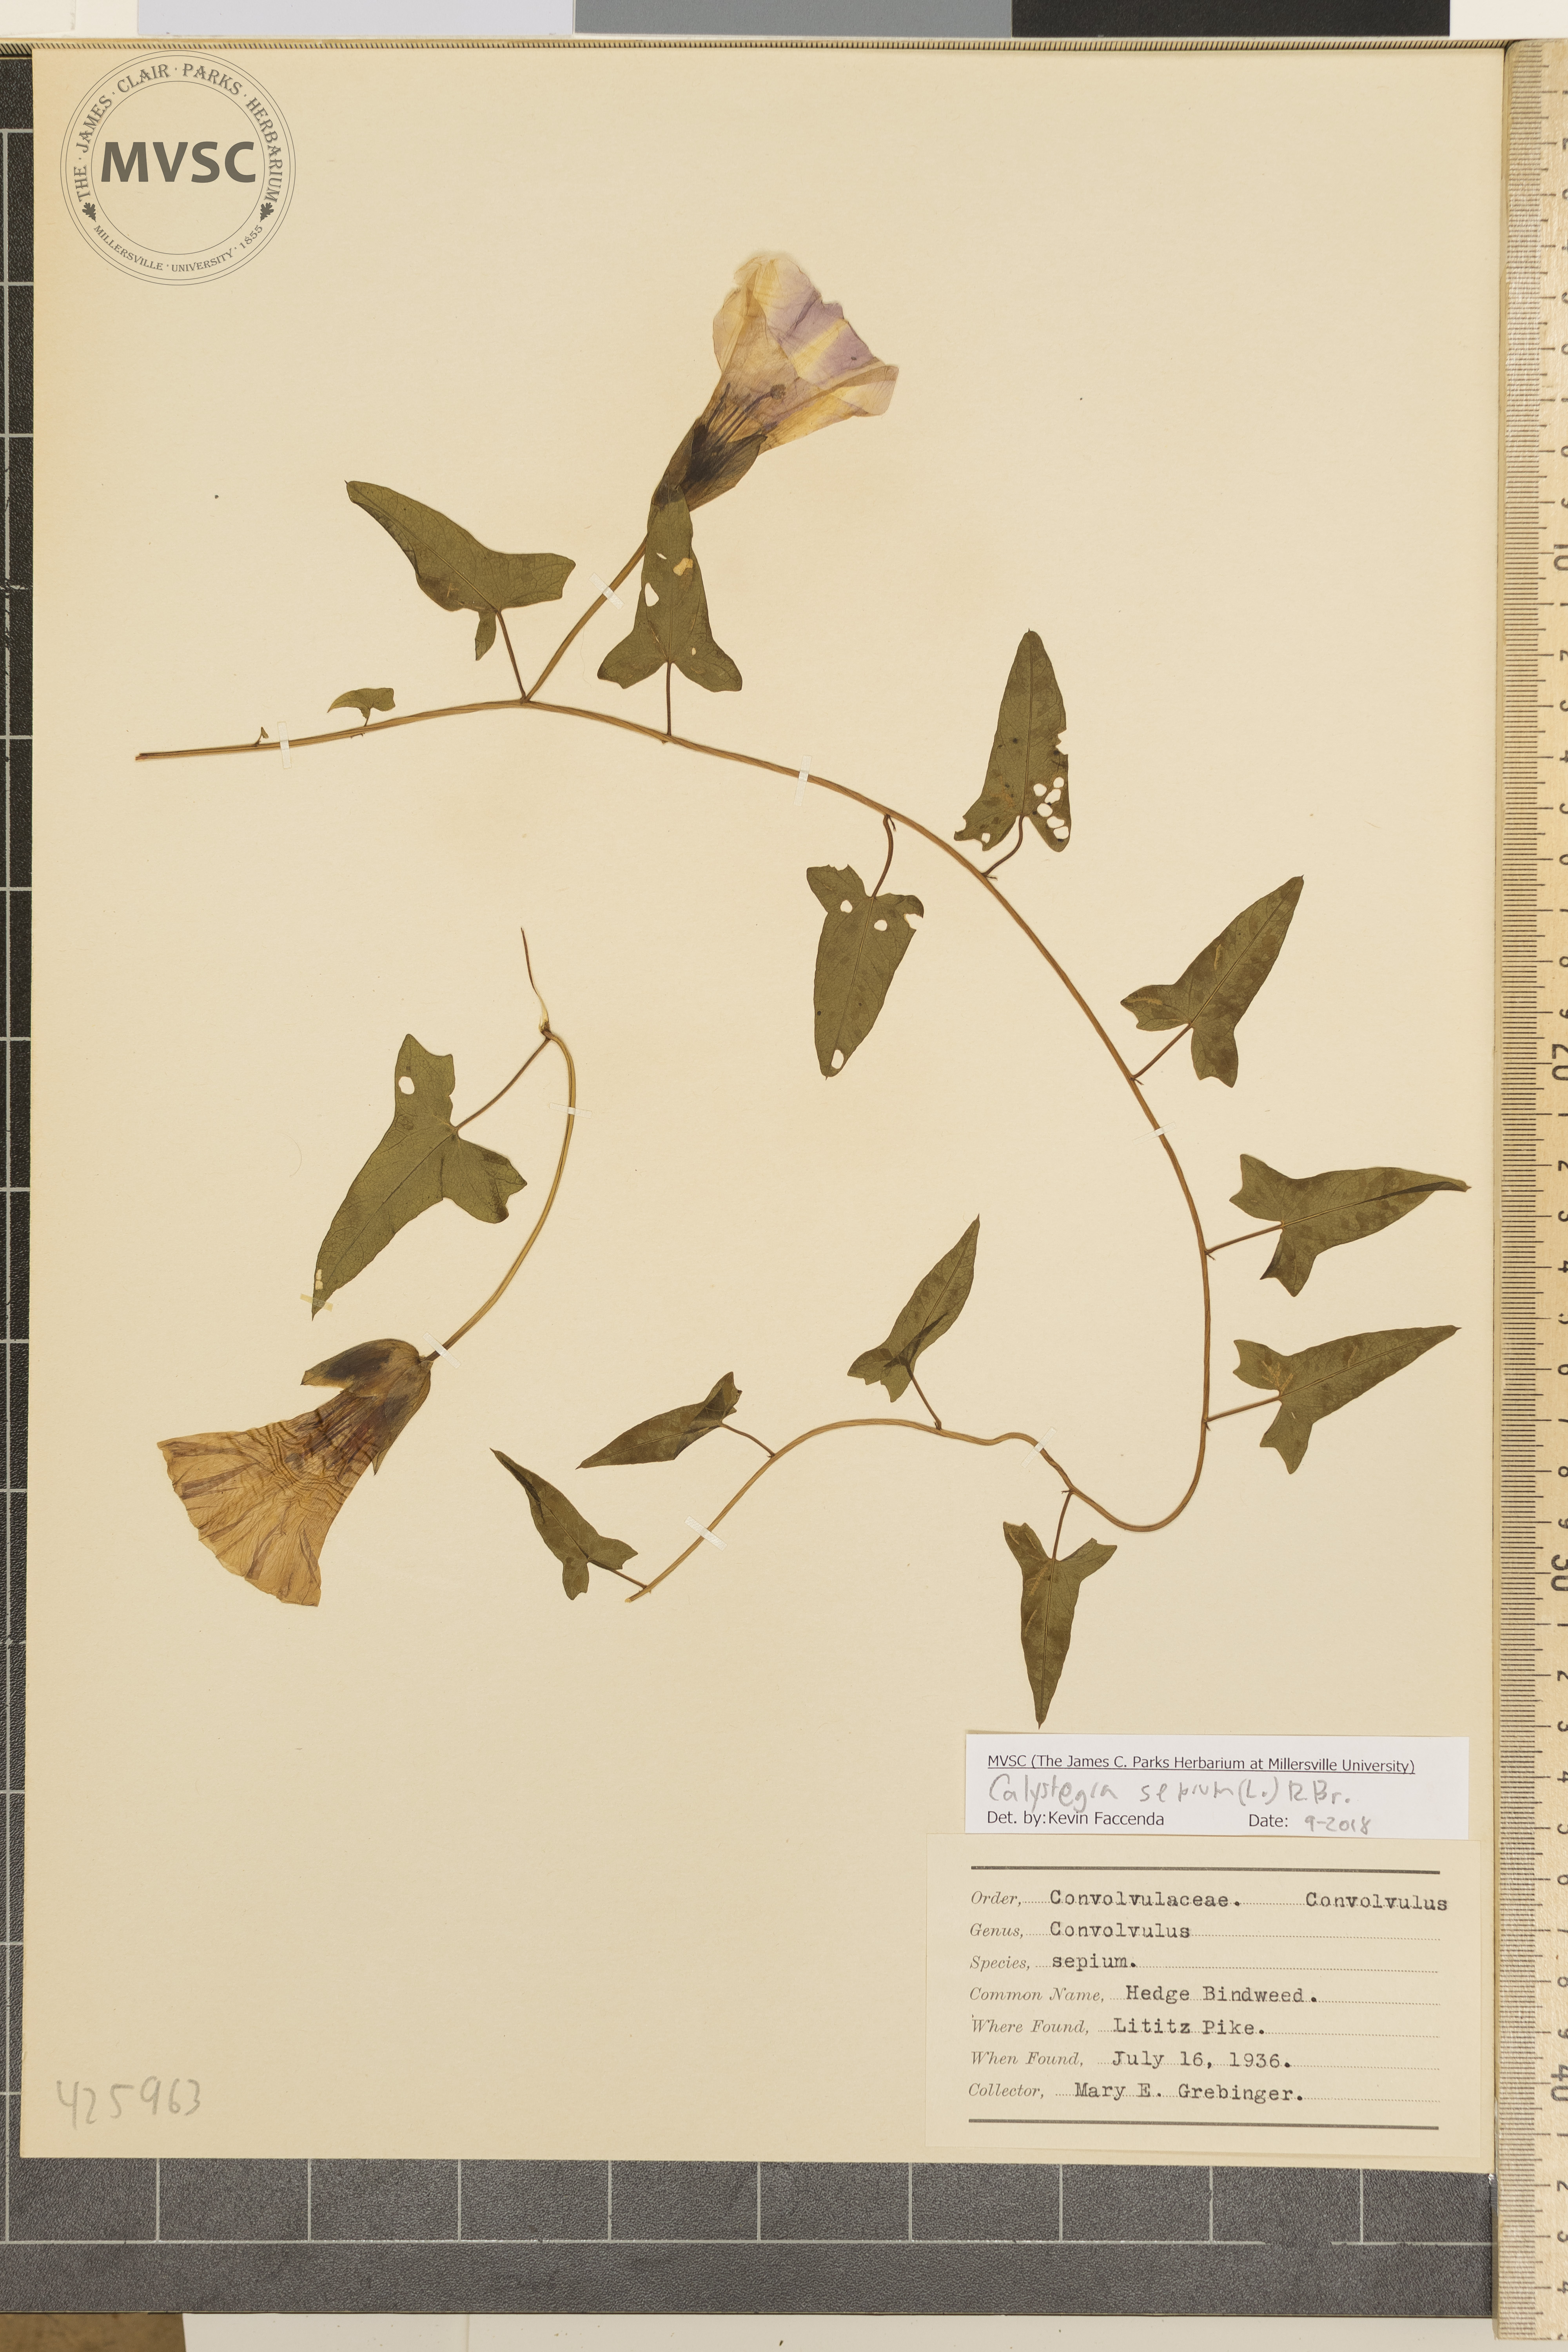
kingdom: Plantae
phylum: Tracheophyta
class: Magnoliopsida
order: Solanales
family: Convolvulaceae
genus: Calystegia
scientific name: Calystegia sepium
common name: Hedge bindweed
